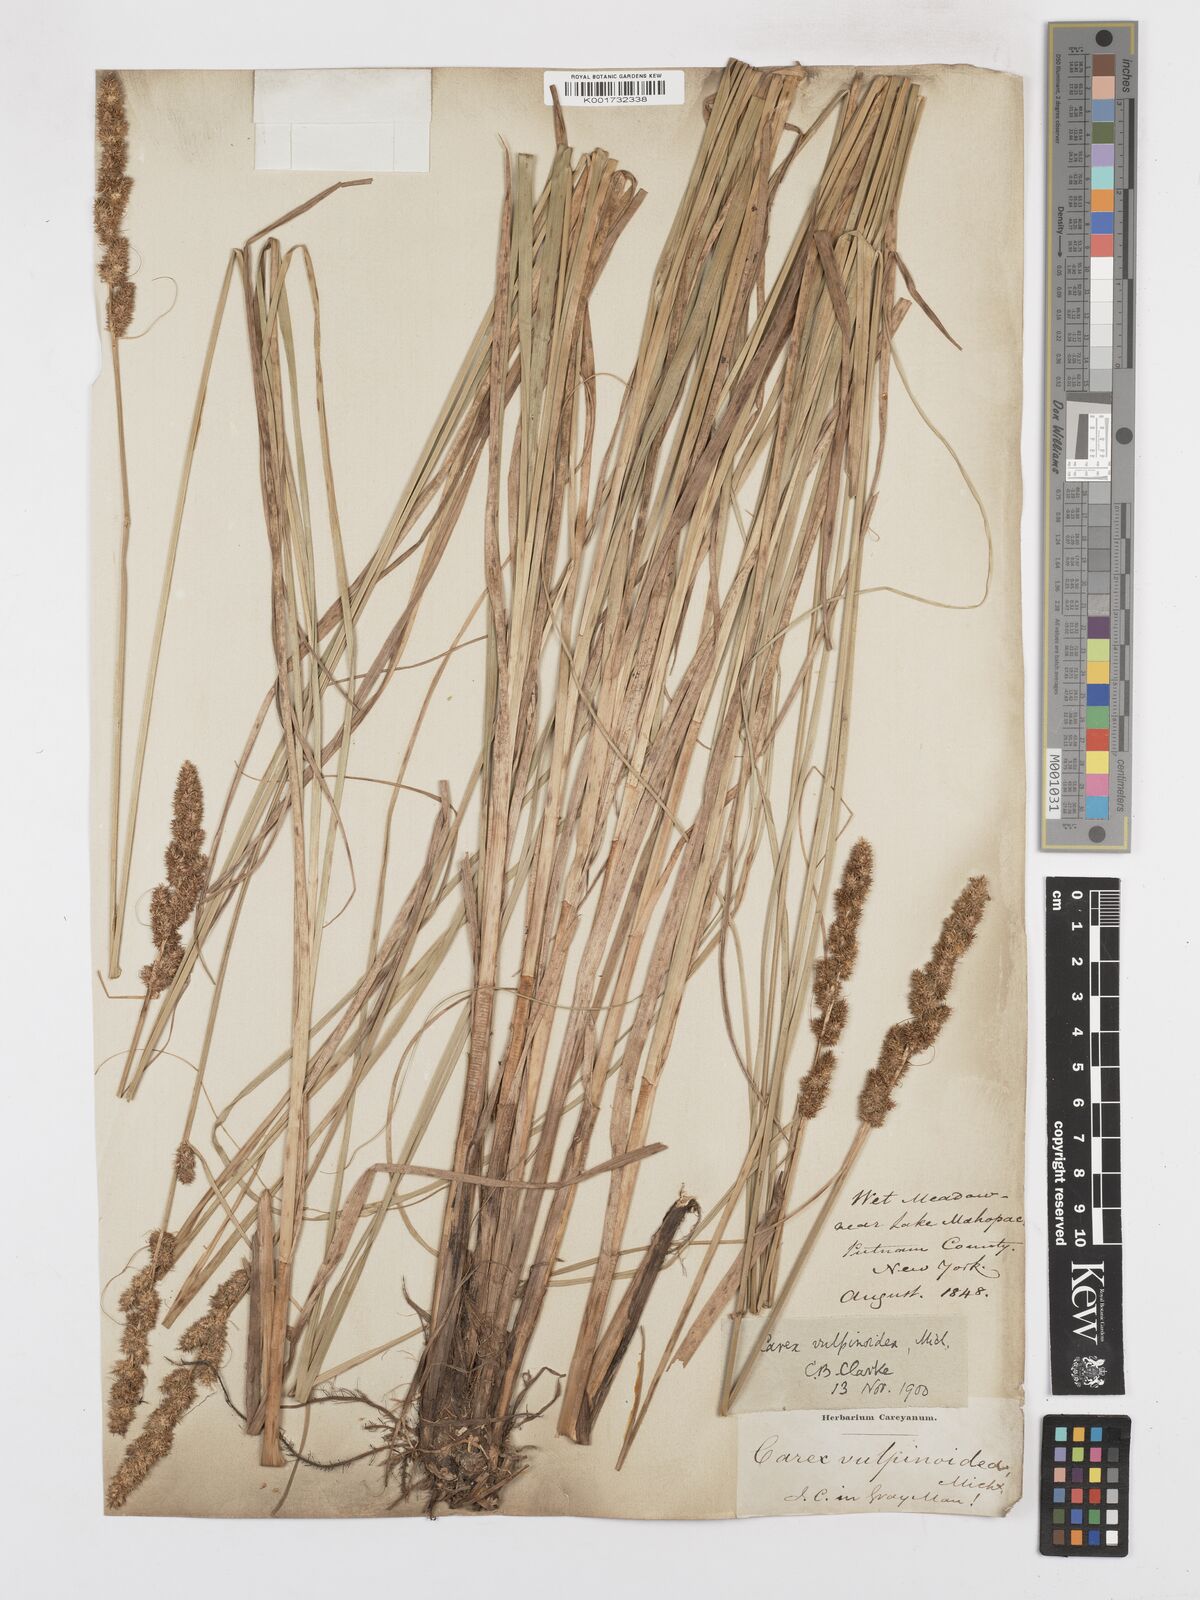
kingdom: Plantae
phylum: Tracheophyta
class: Liliopsida
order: Poales
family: Cyperaceae
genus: Carex
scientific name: Carex vulpinoidea
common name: American fox-sedge
